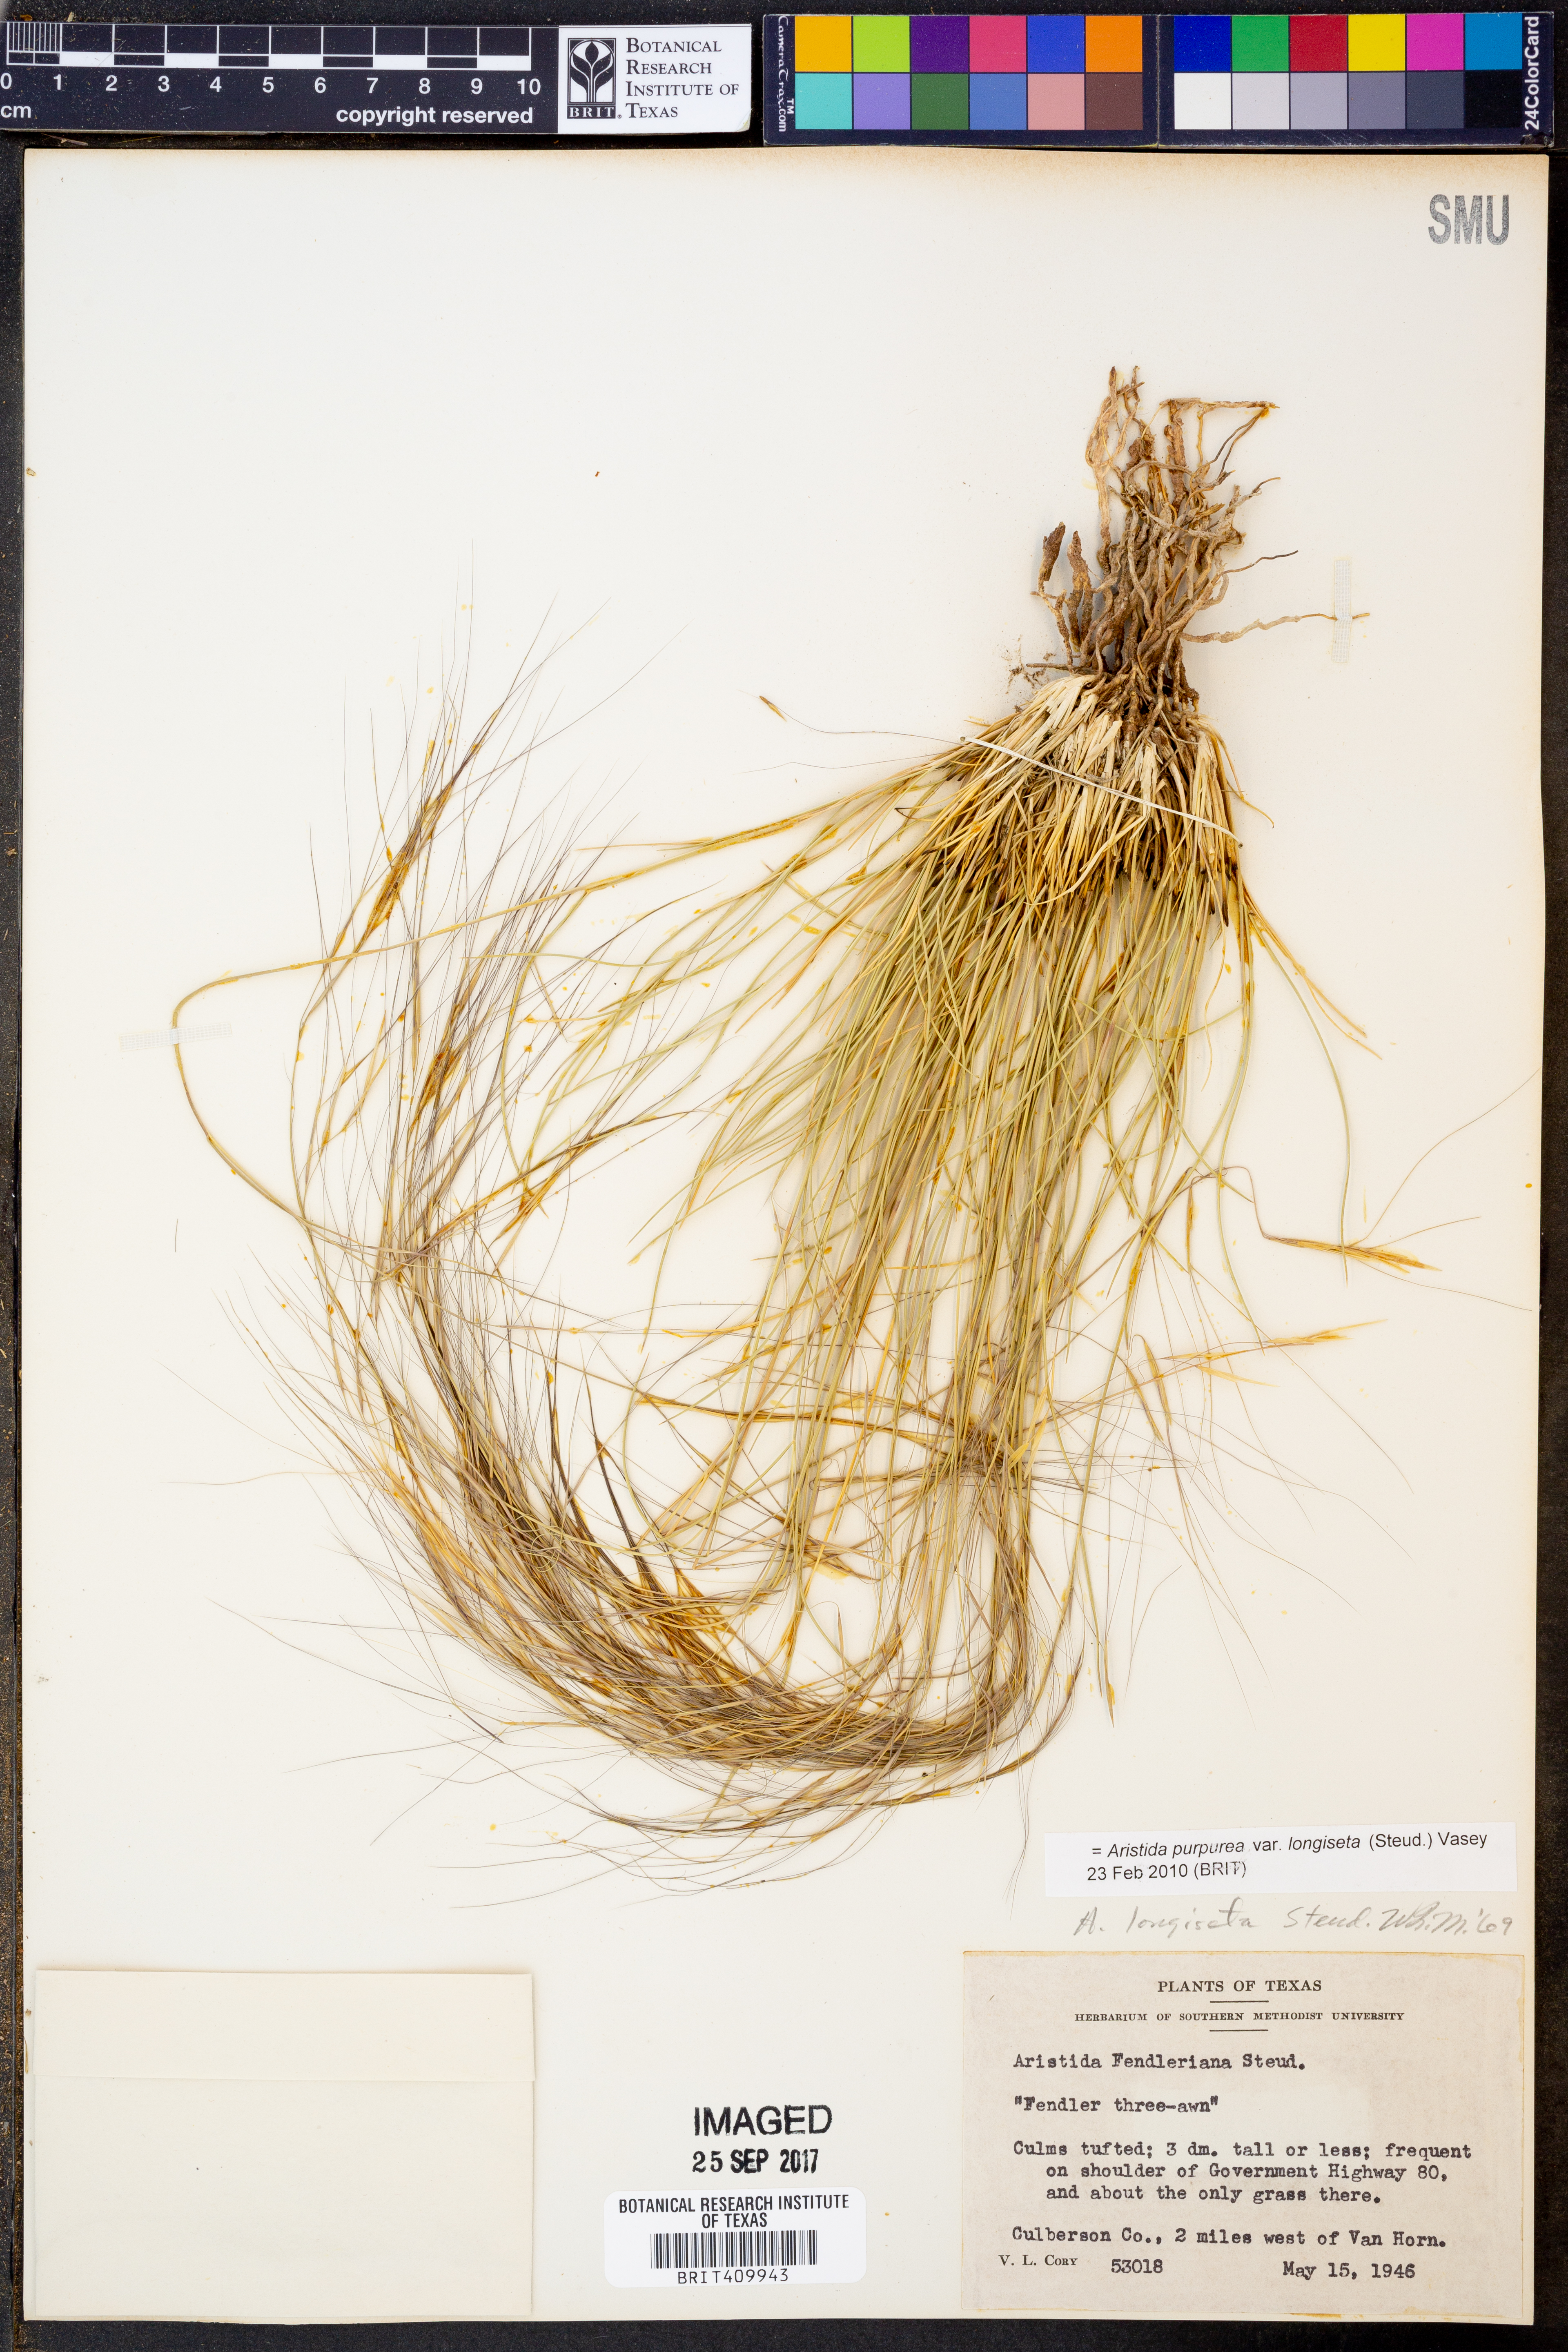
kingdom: Plantae
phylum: Tracheophyta
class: Liliopsida
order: Poales
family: Poaceae
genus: Aristida
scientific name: Aristida longiseta
